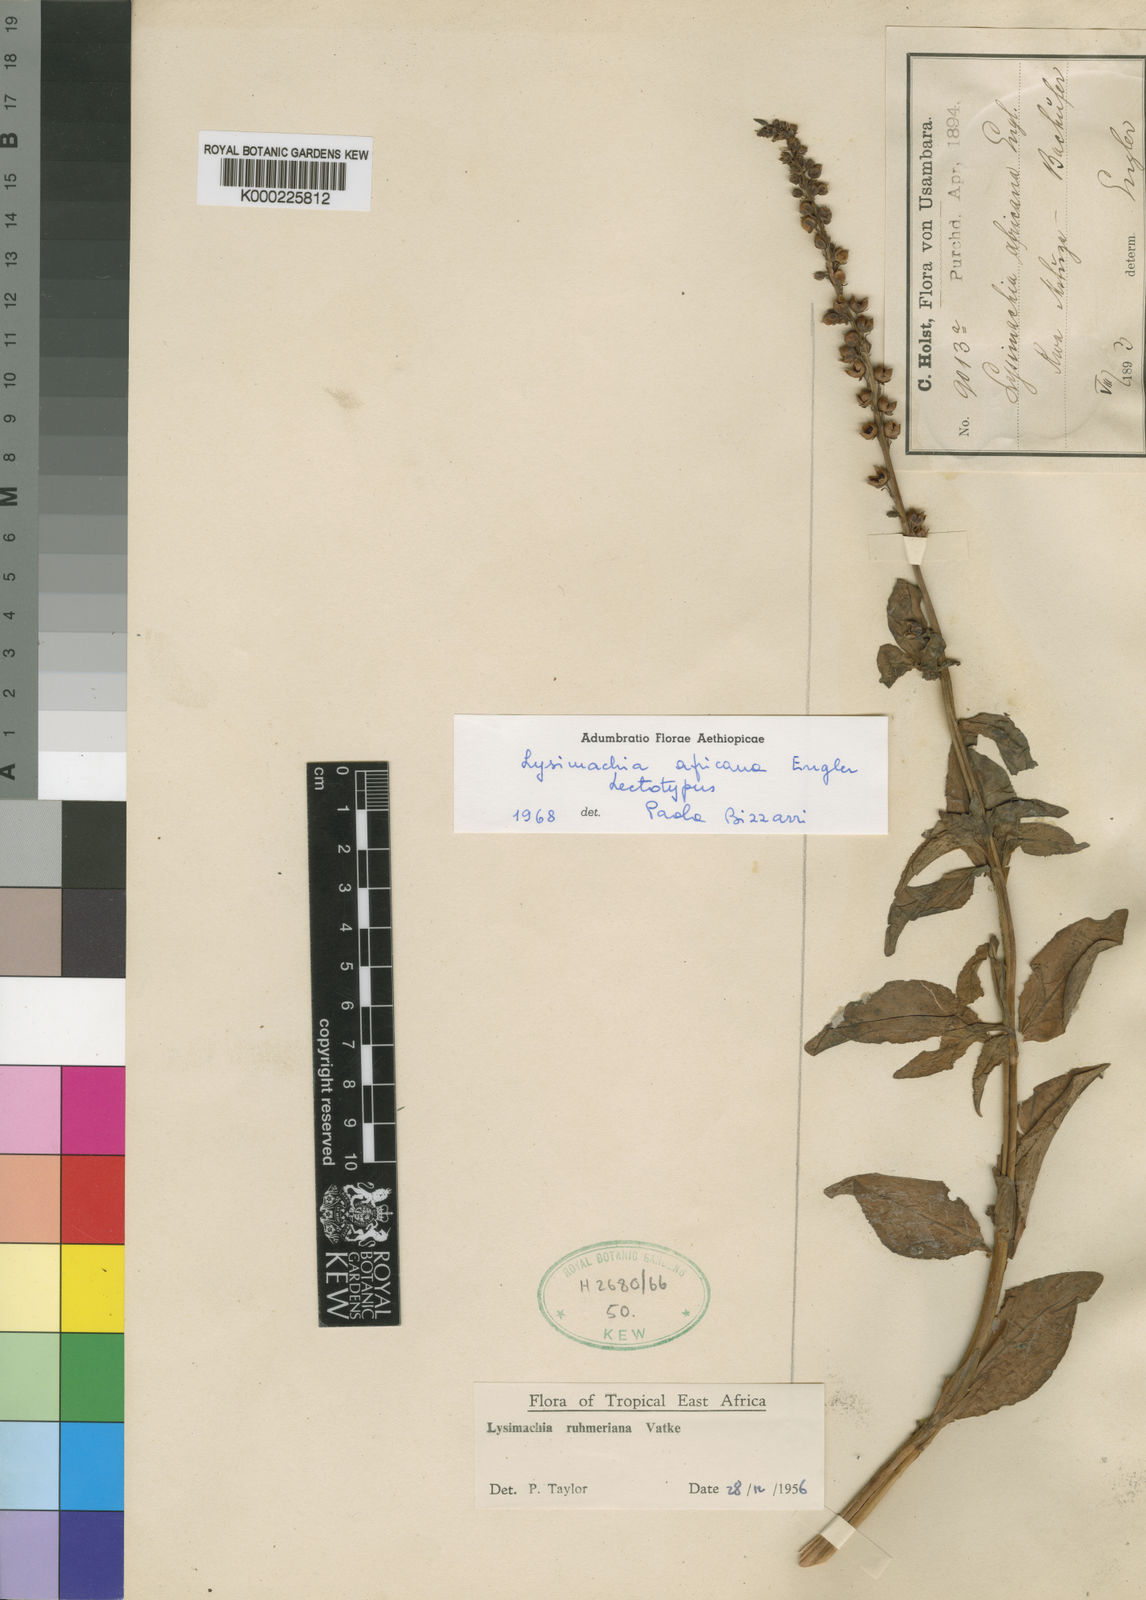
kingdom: Plantae
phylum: Tracheophyta
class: Magnoliopsida
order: Ericales
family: Primulaceae
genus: Lysimachia
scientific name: Lysimachia ruhmeriana
